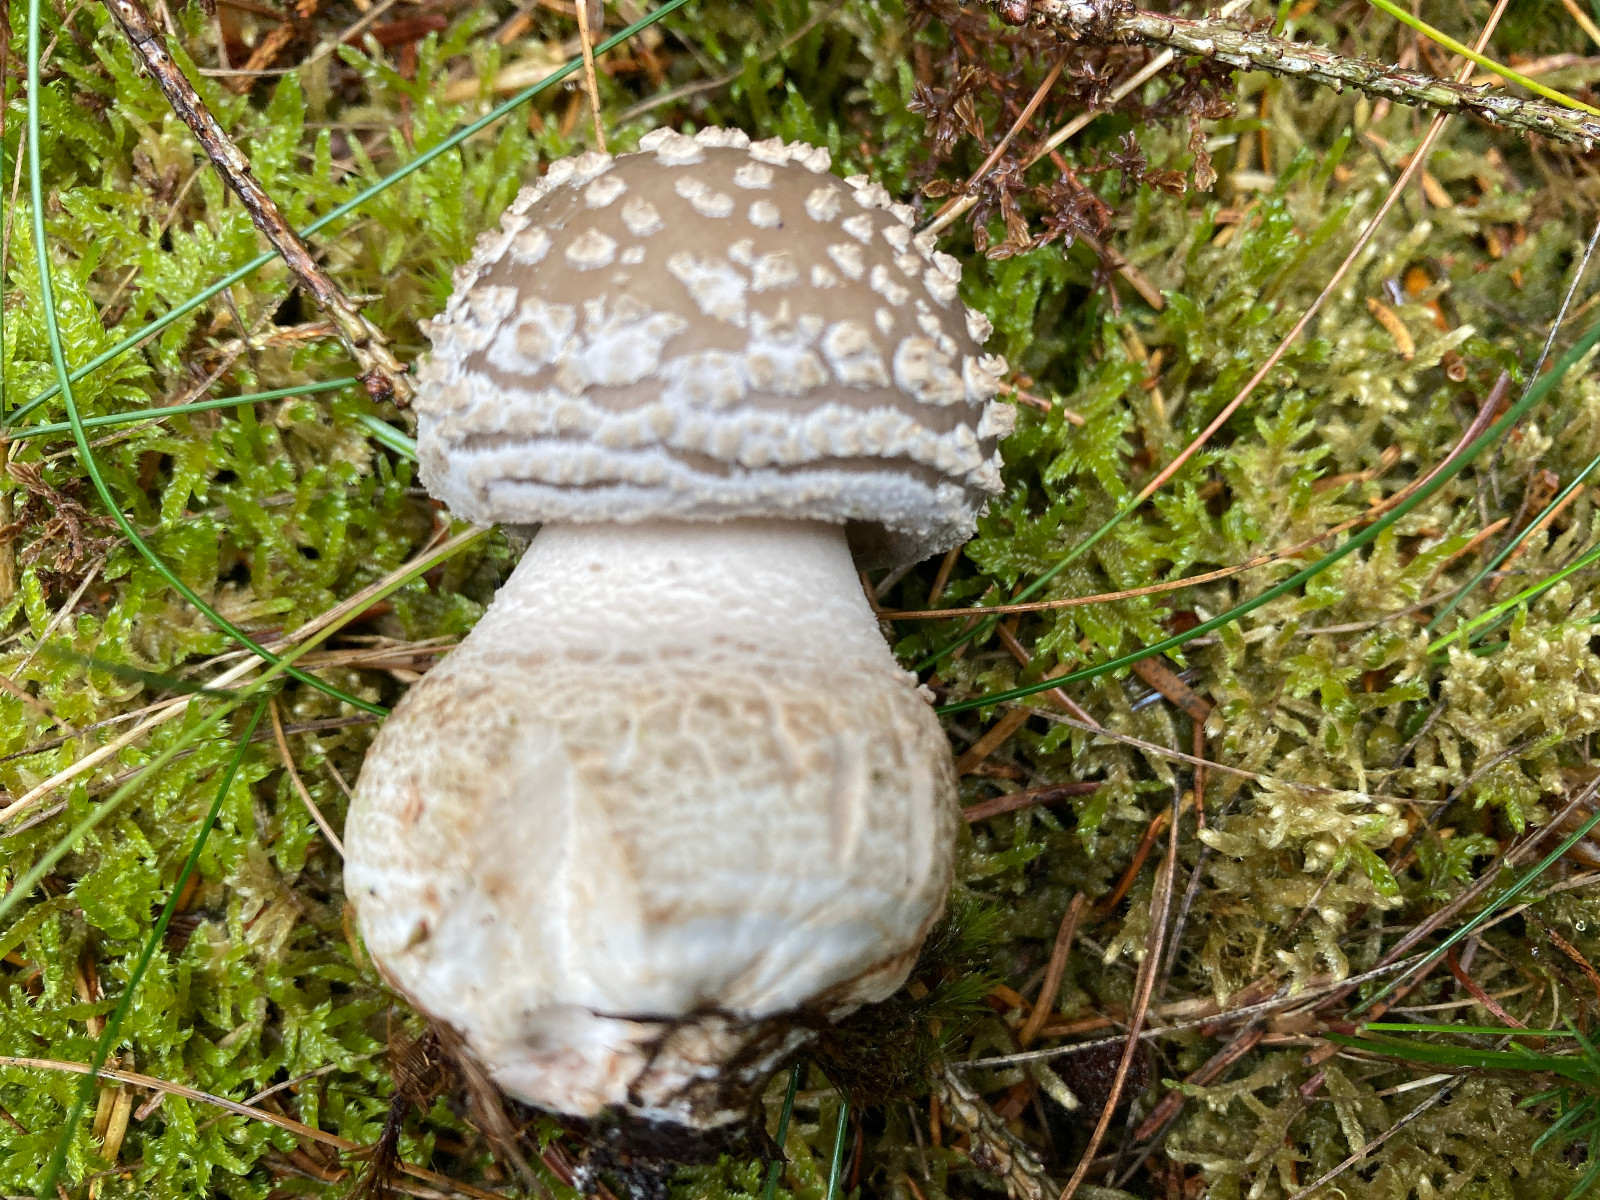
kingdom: Fungi
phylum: Basidiomycota
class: Agaricomycetes
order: Agaricales
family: Amanitaceae
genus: Amanita
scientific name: Amanita
